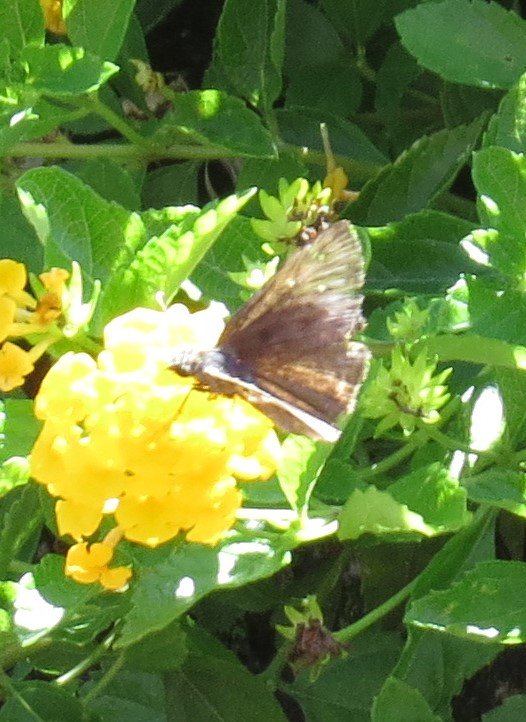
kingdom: Animalia
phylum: Arthropoda
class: Insecta
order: Lepidoptera
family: Hesperiidae
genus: Gesta
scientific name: Gesta
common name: Horace's Duskywing
